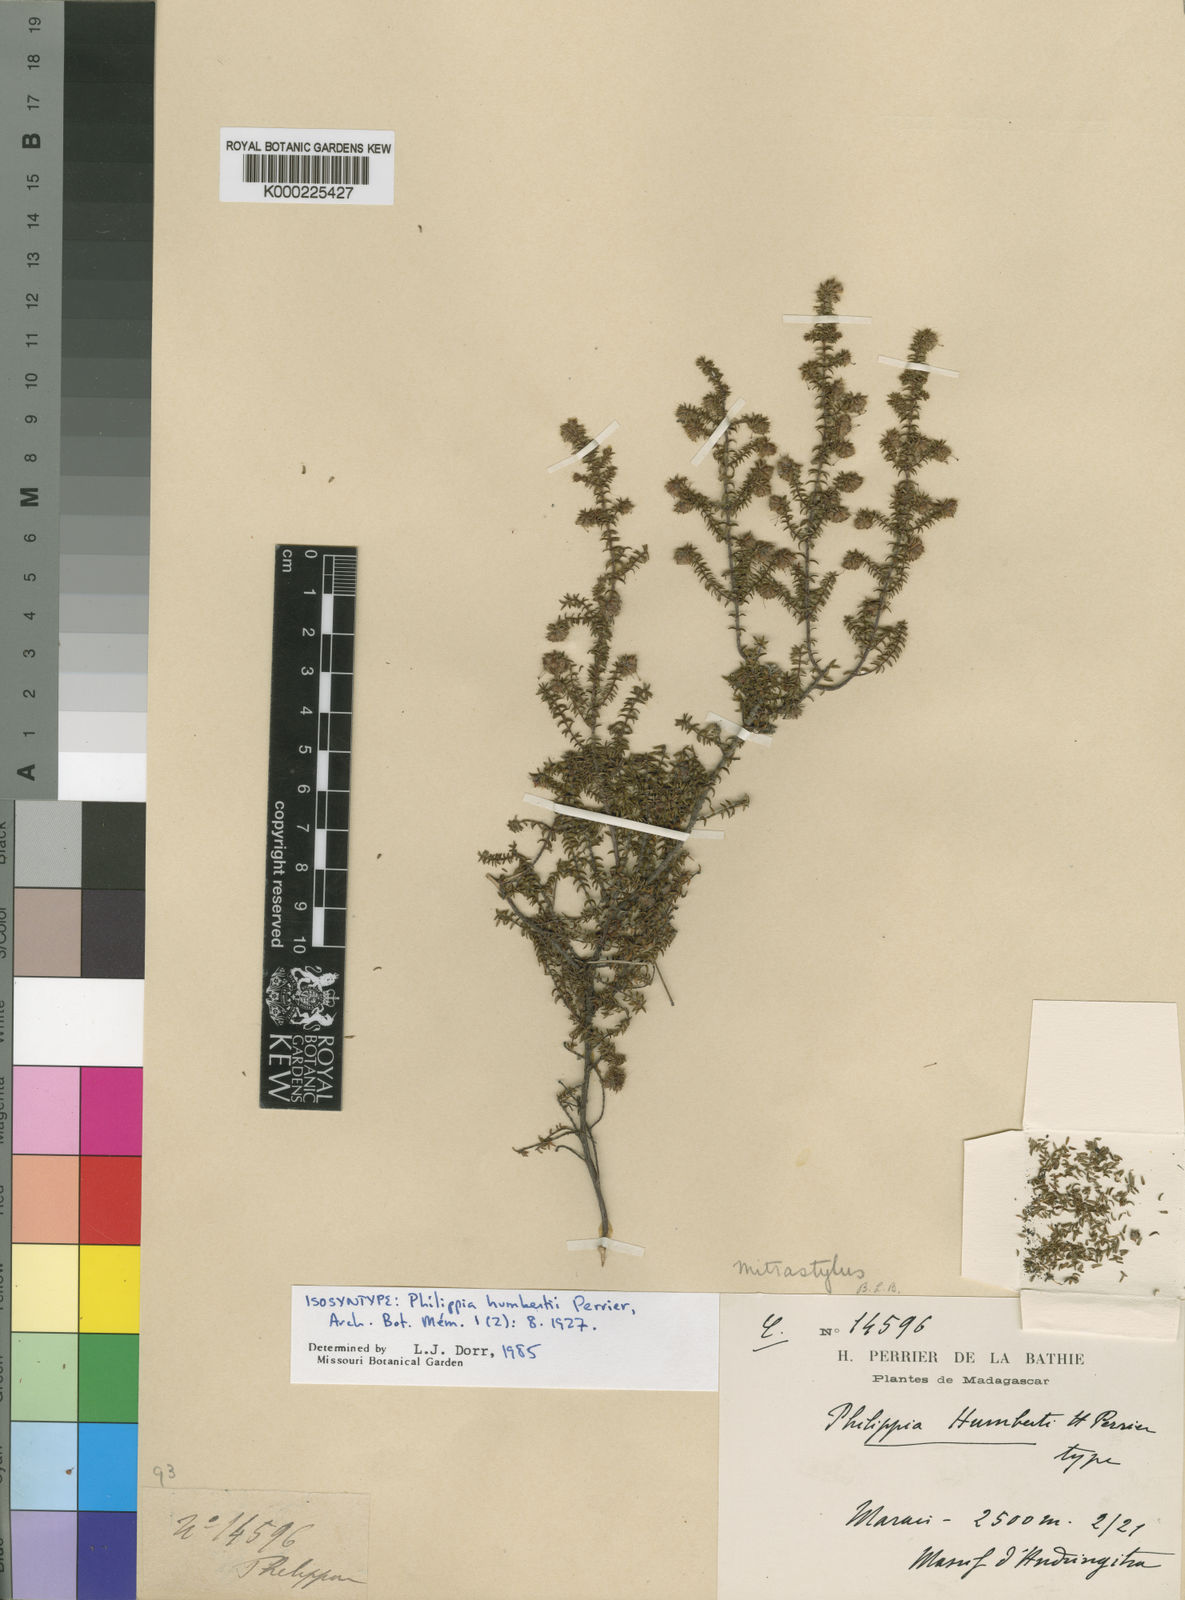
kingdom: Plantae
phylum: Tracheophyta
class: Magnoliopsida
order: Ericales
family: Ericaceae
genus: Erica
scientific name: Erica humbertii
